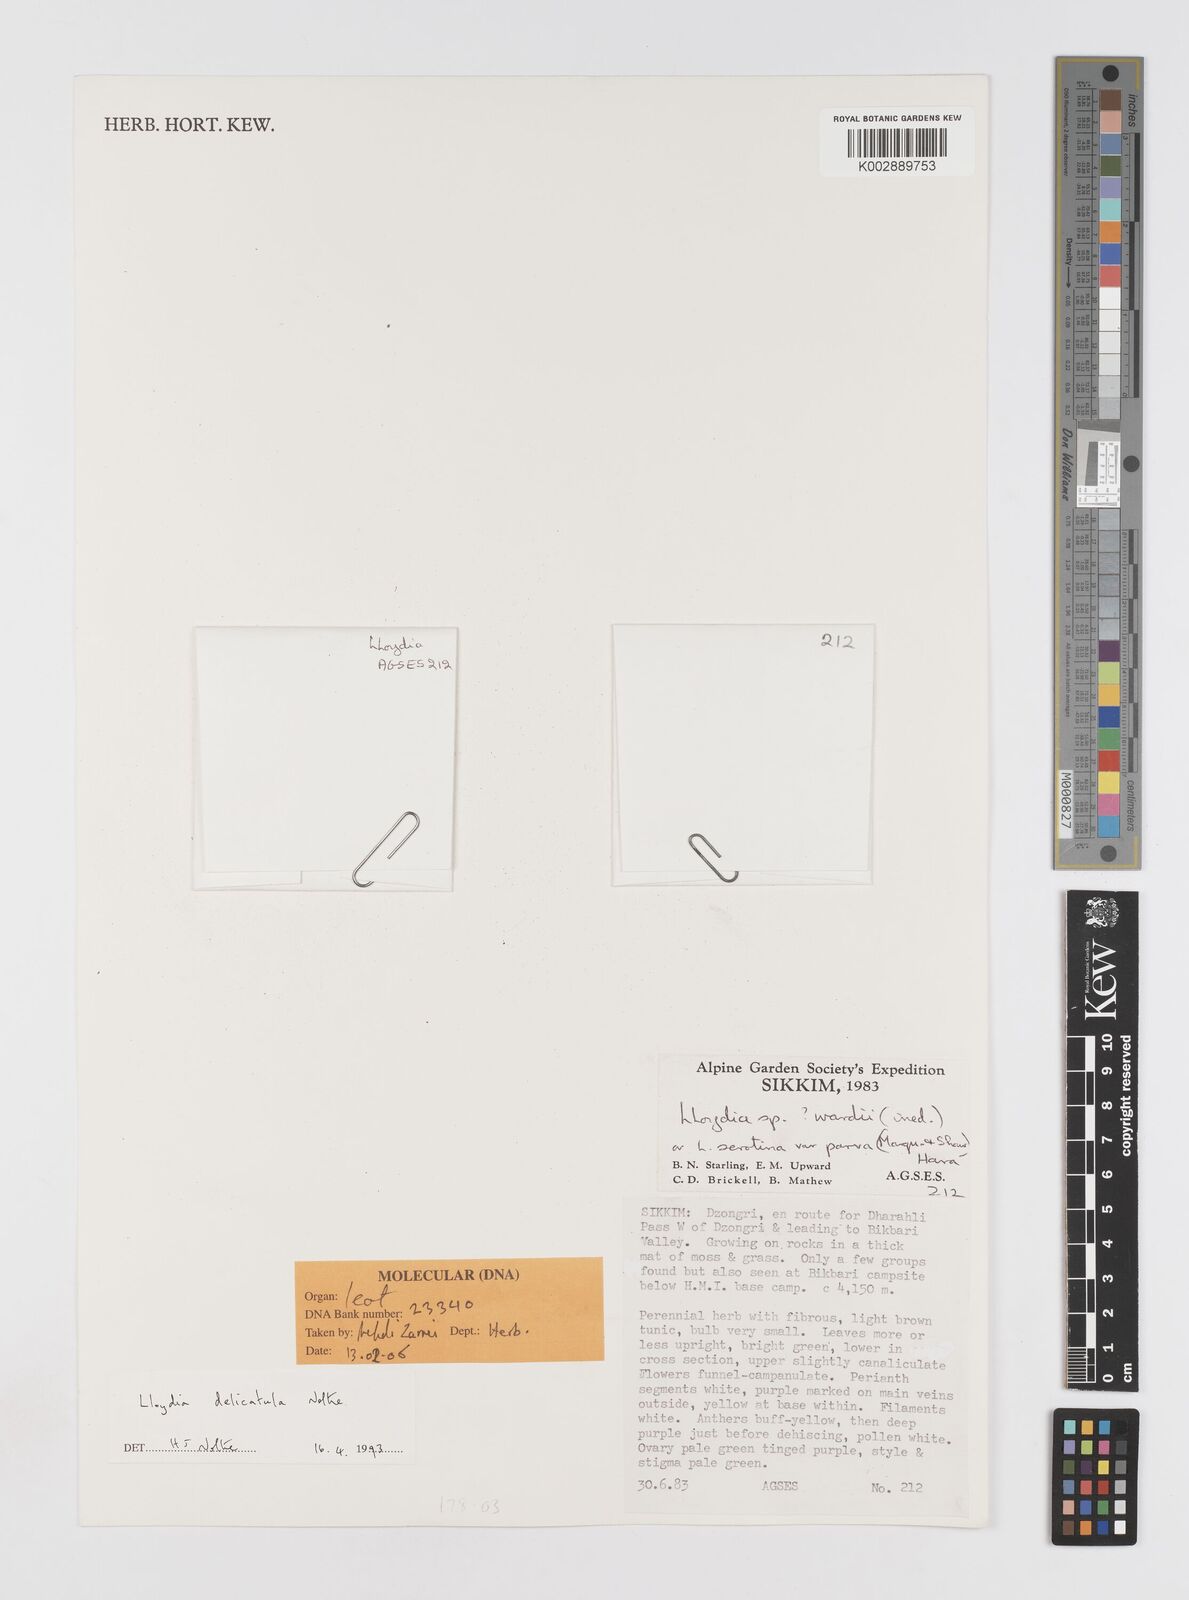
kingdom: Plantae
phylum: Tracheophyta
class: Liliopsida
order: Liliales
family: Liliaceae
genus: Gagea
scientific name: Gagea delicatula
